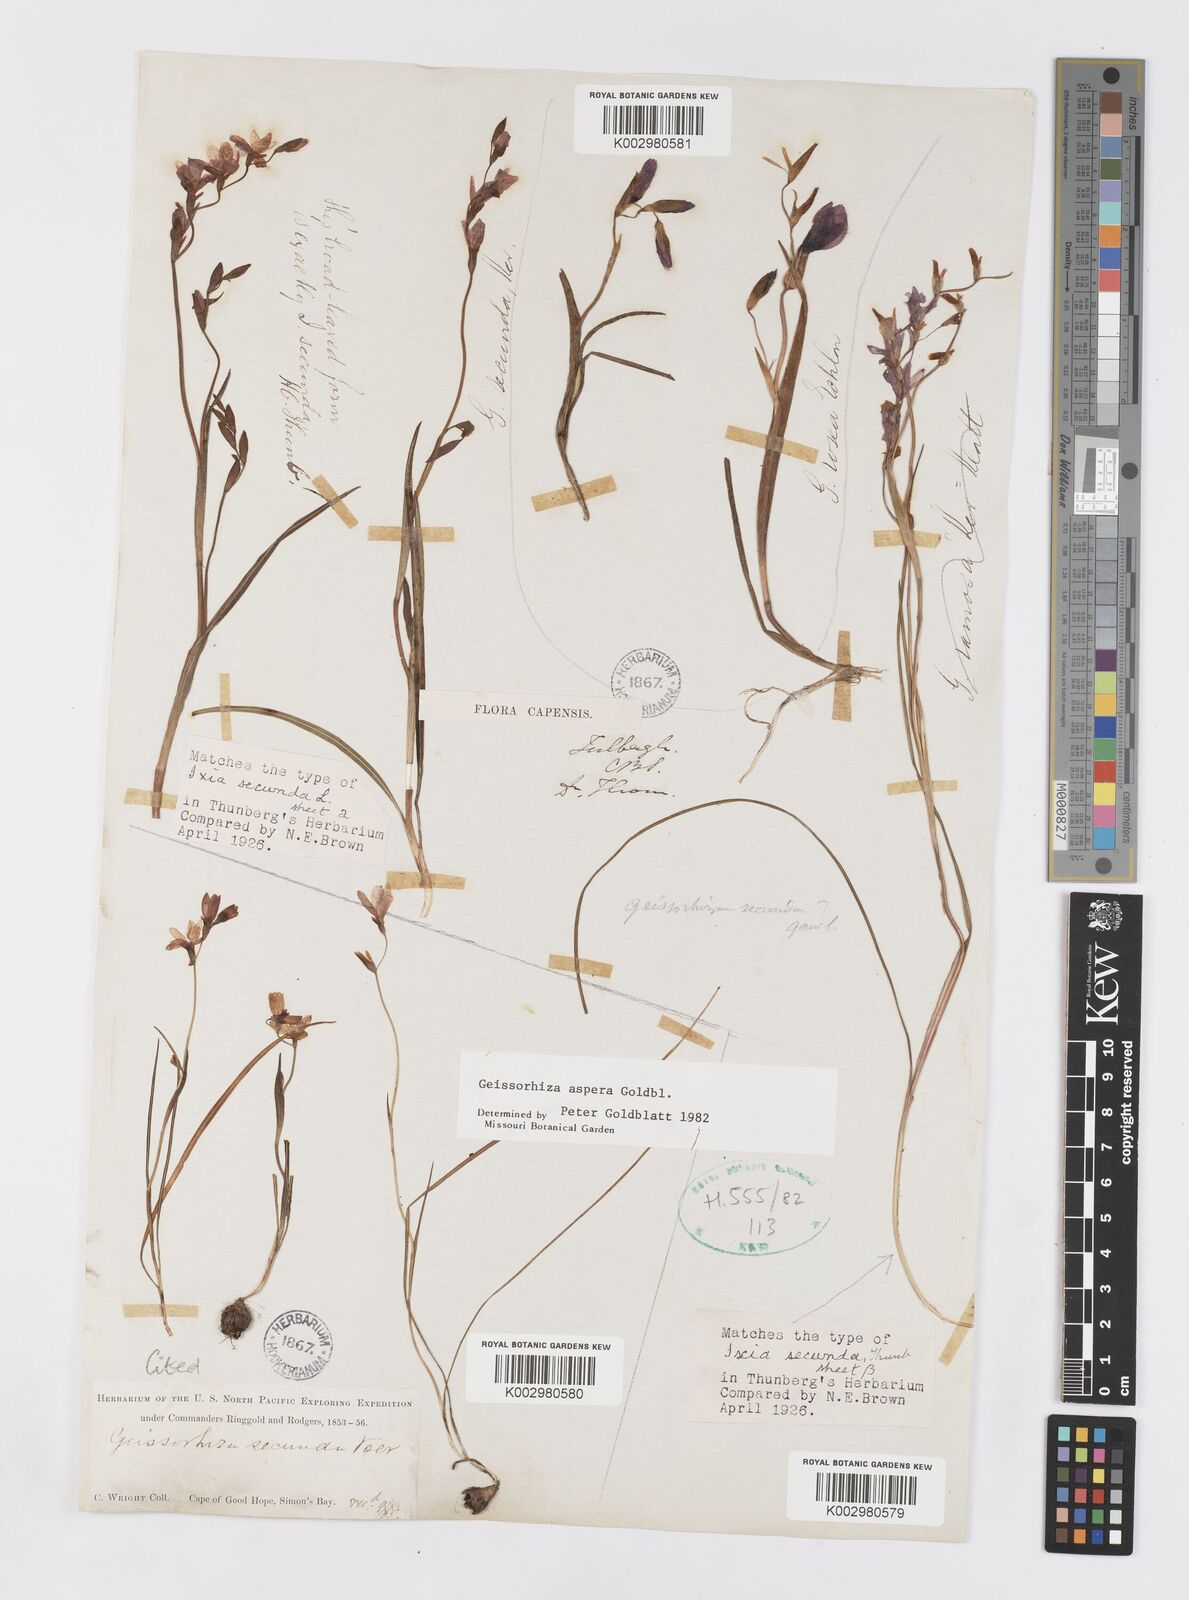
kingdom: Plantae
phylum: Tracheophyta
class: Liliopsida
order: Asparagales
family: Iridaceae
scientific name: Iridaceae
